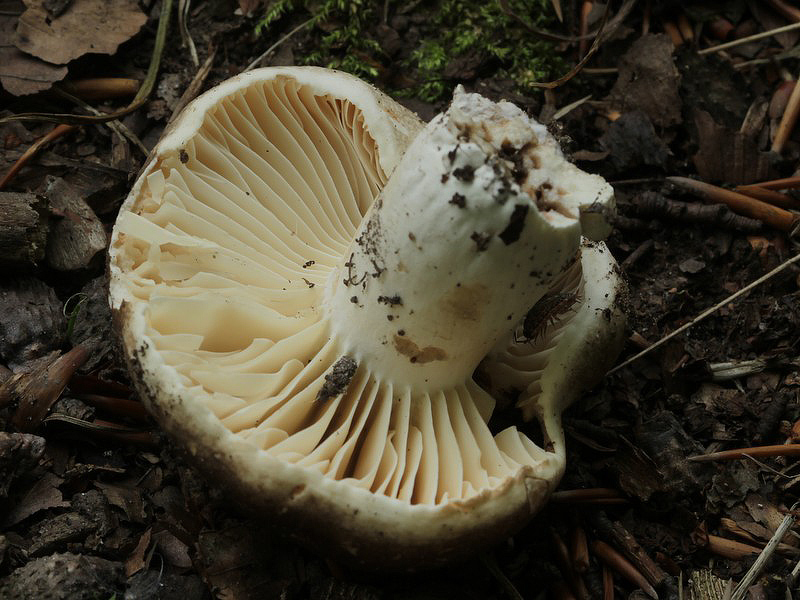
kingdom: Fungi
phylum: Basidiomycota
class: Agaricomycetes
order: Russulales
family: Russulaceae
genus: Russula
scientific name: Russula adusta
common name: sværtende skørhat
